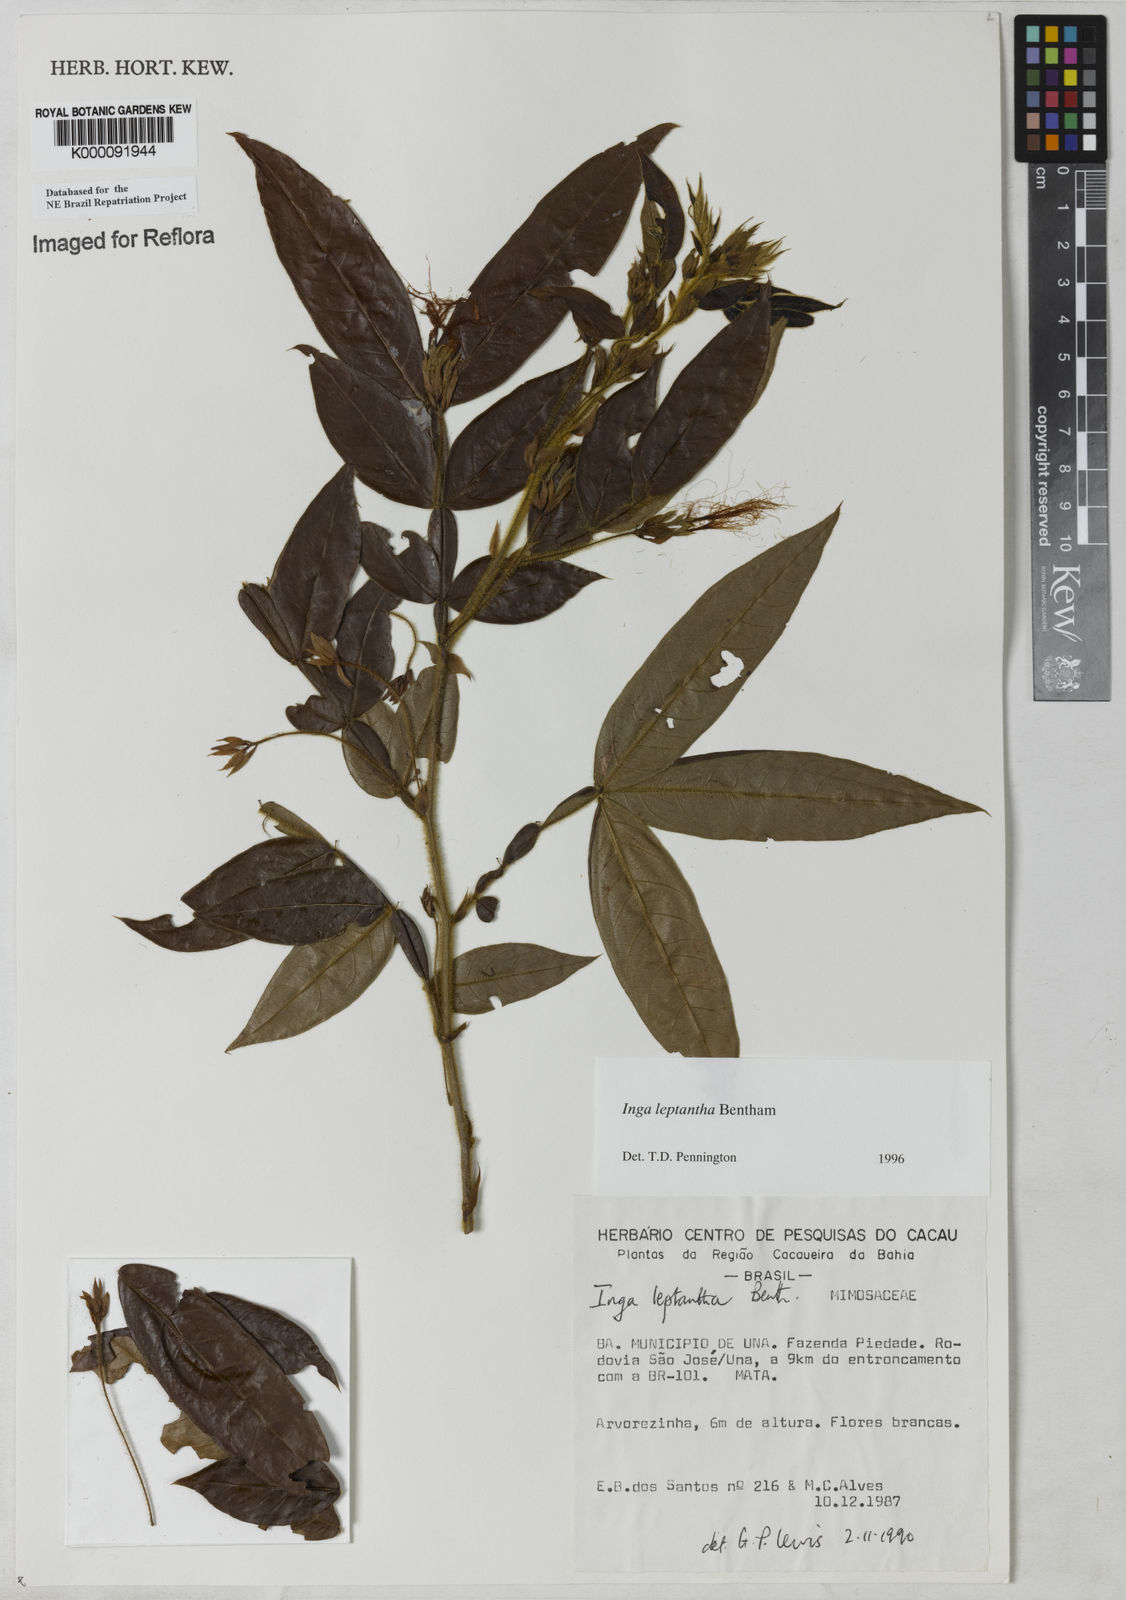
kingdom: Plantae
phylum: Tracheophyta
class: Magnoliopsida
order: Fabales
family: Fabaceae
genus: Inga
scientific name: Inga leptantha
